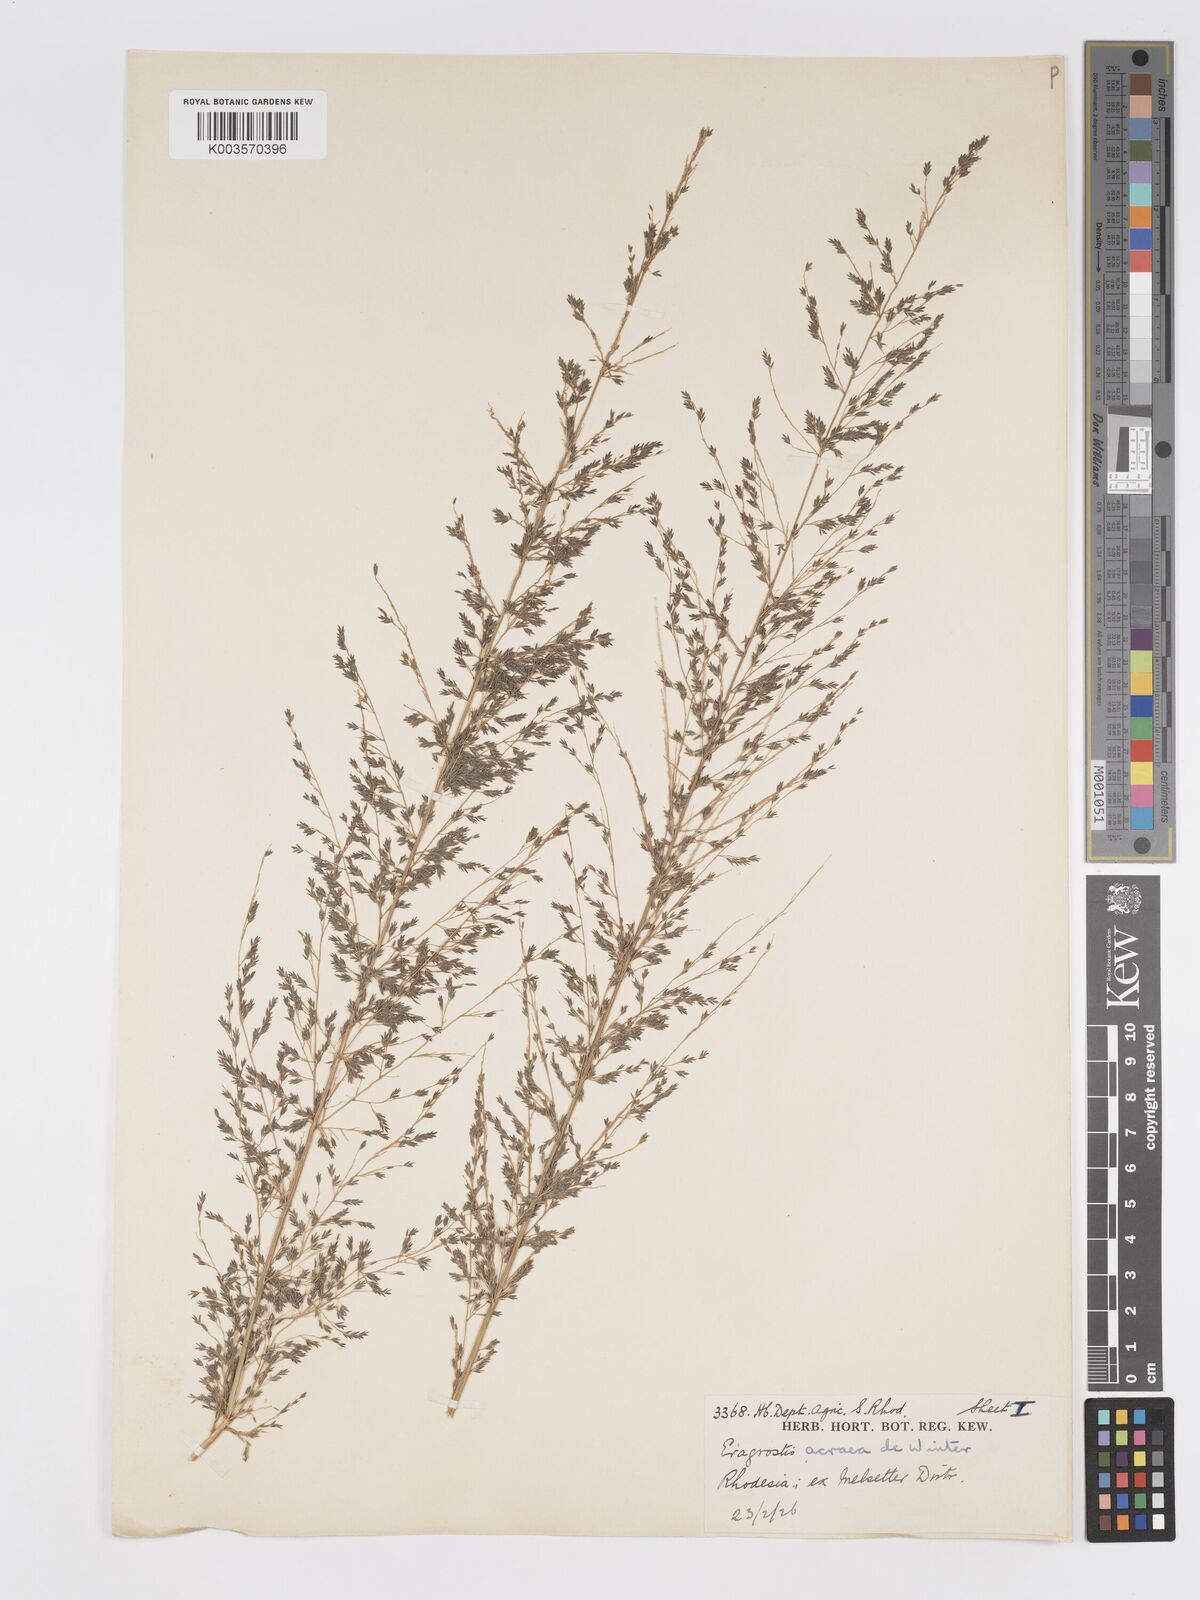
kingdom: Plantae
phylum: Tracheophyta
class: Liliopsida
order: Poales
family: Poaceae
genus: Eragrostis
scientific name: Eragrostis acraea
